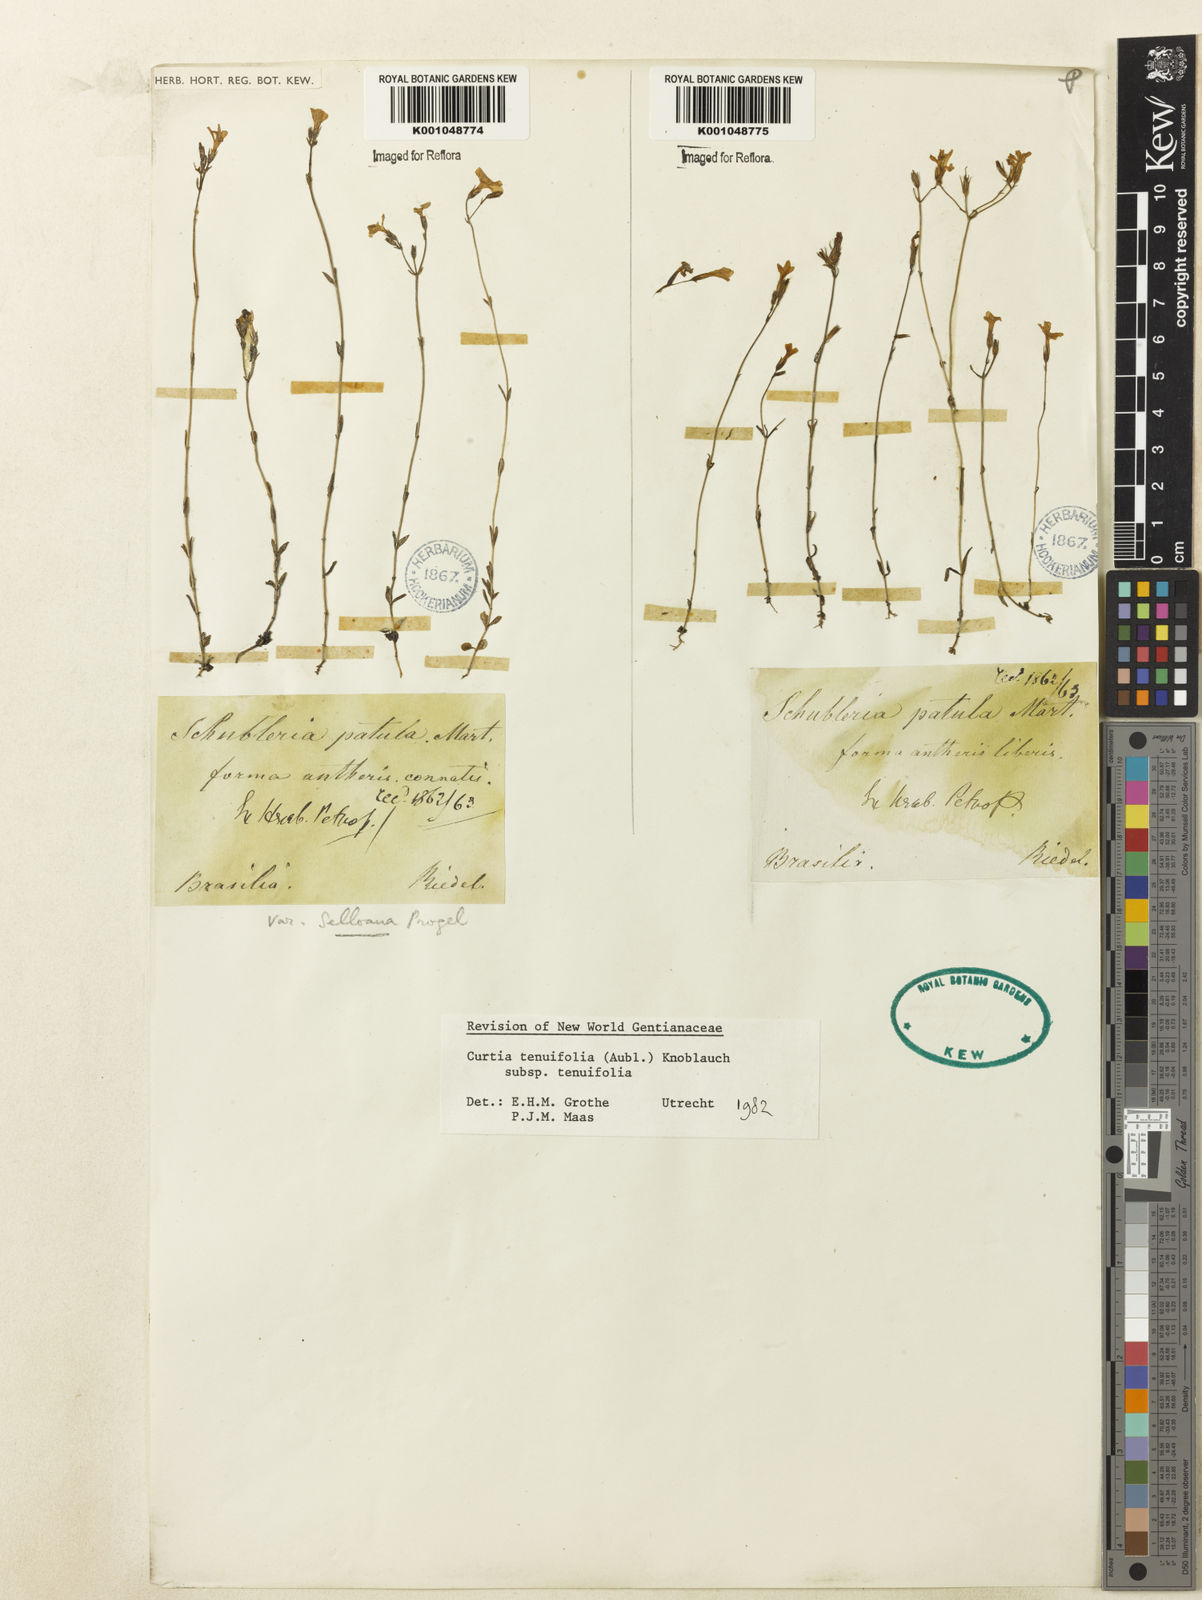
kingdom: Plantae
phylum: Tracheophyta
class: Magnoliopsida
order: Gentianales
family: Gentianaceae
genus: Curtia
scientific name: Curtia tenuifolia
